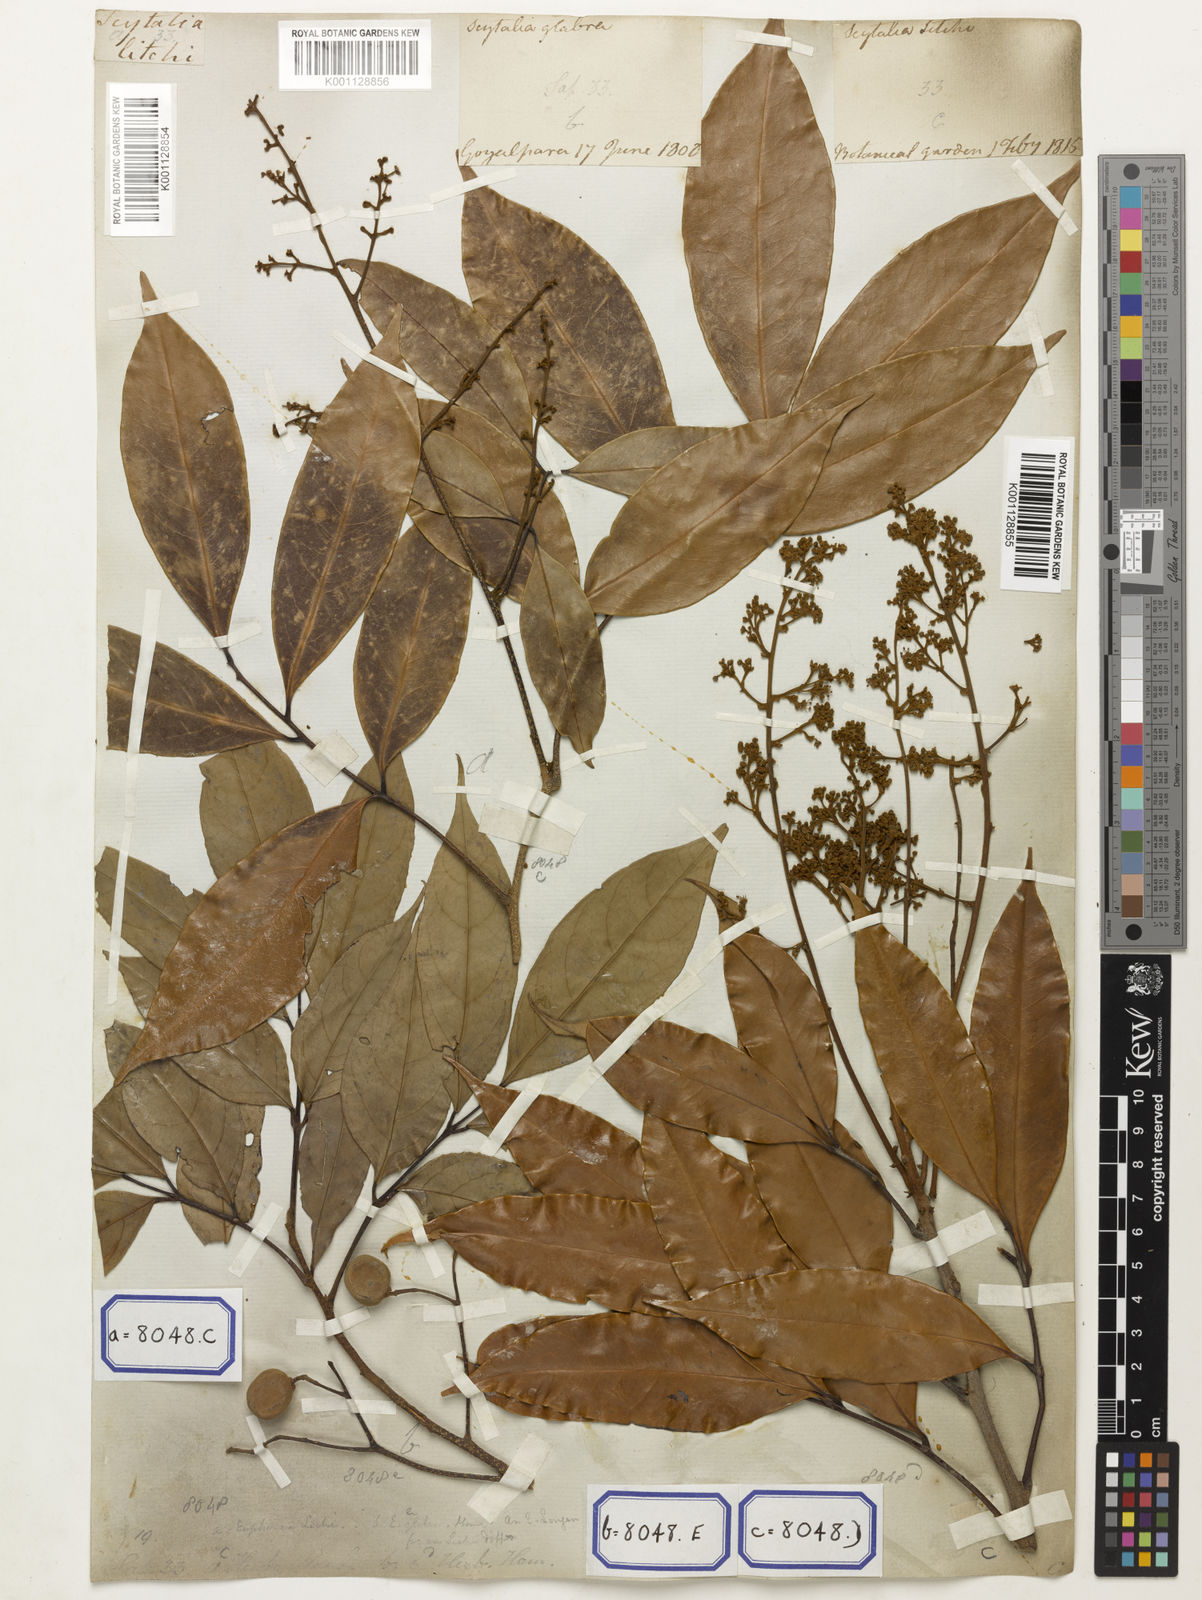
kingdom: Animalia
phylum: Arthropoda
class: Insecta
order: Coleoptera
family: Scarabaeidae
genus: Euphoria
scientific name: Euphoria
